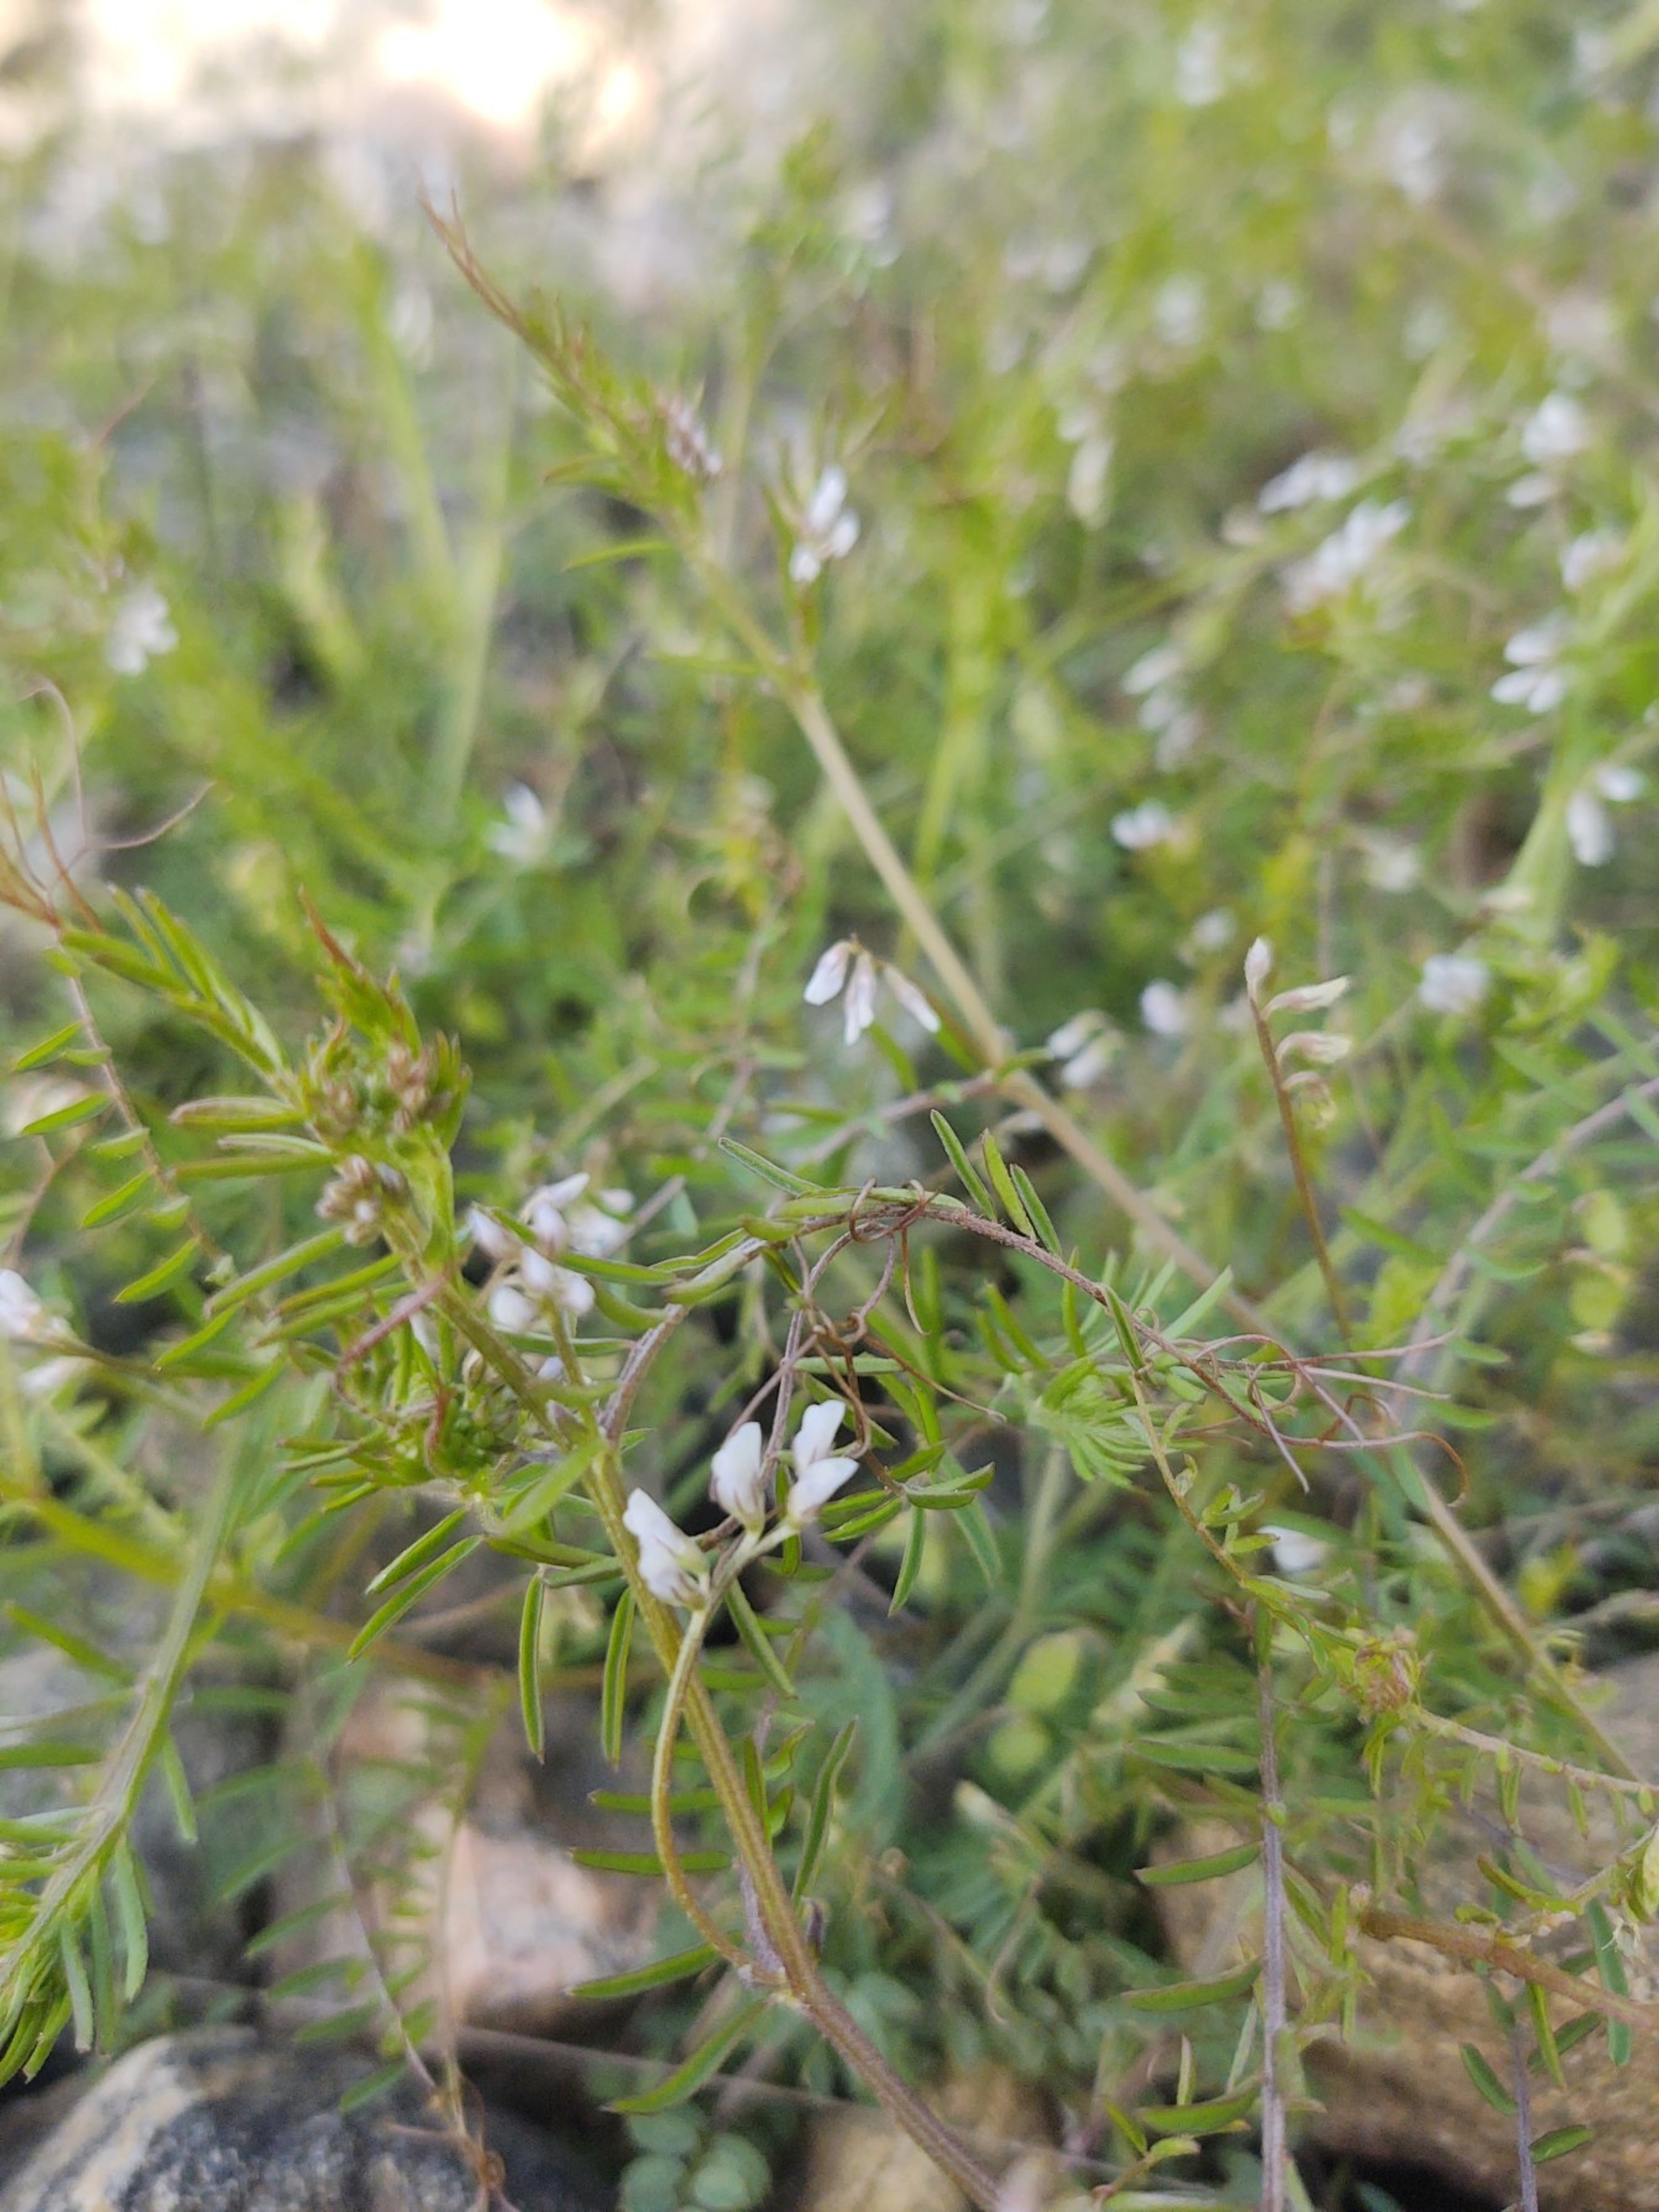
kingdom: Plantae
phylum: Tracheophyta
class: Magnoliopsida
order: Fabales
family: Fabaceae
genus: Vicia
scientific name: Vicia hirsuta
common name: Tofrøet vikke
